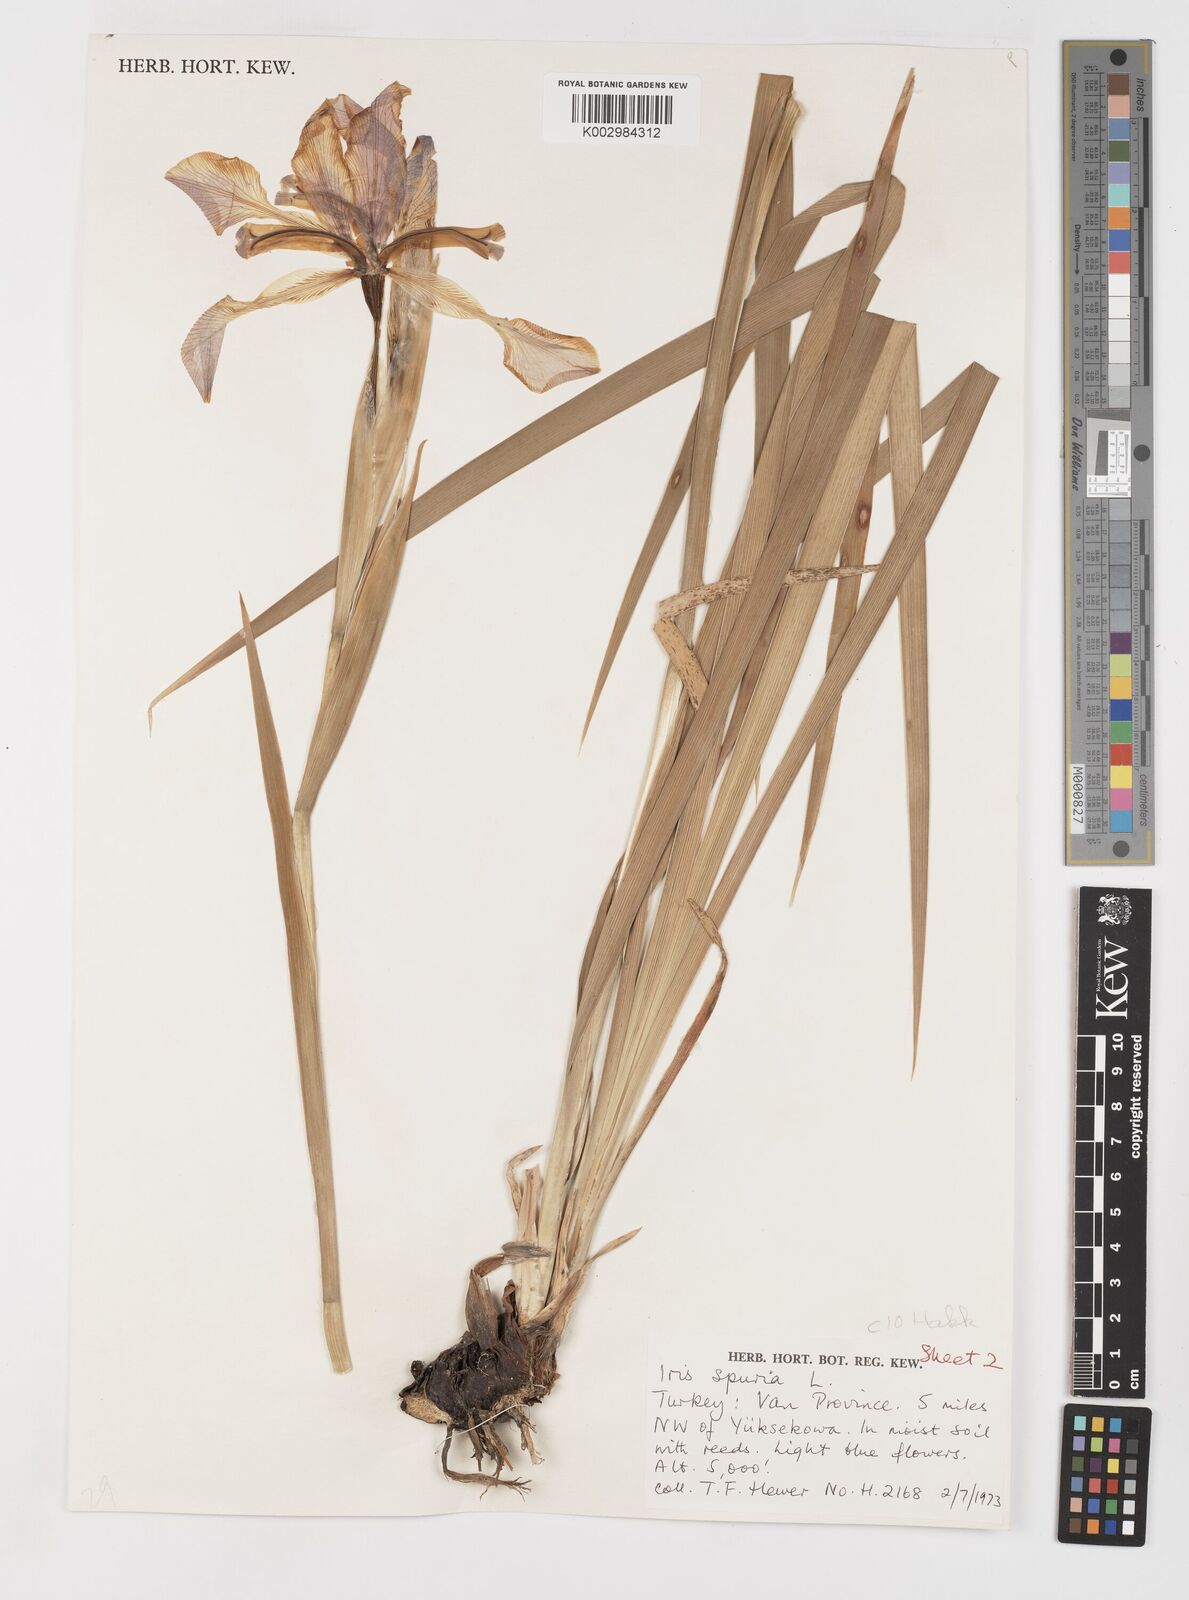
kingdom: Plantae
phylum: Tracheophyta
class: Liliopsida
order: Asparagales
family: Iridaceae
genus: Iris
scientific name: Iris spuria
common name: Blue iris
